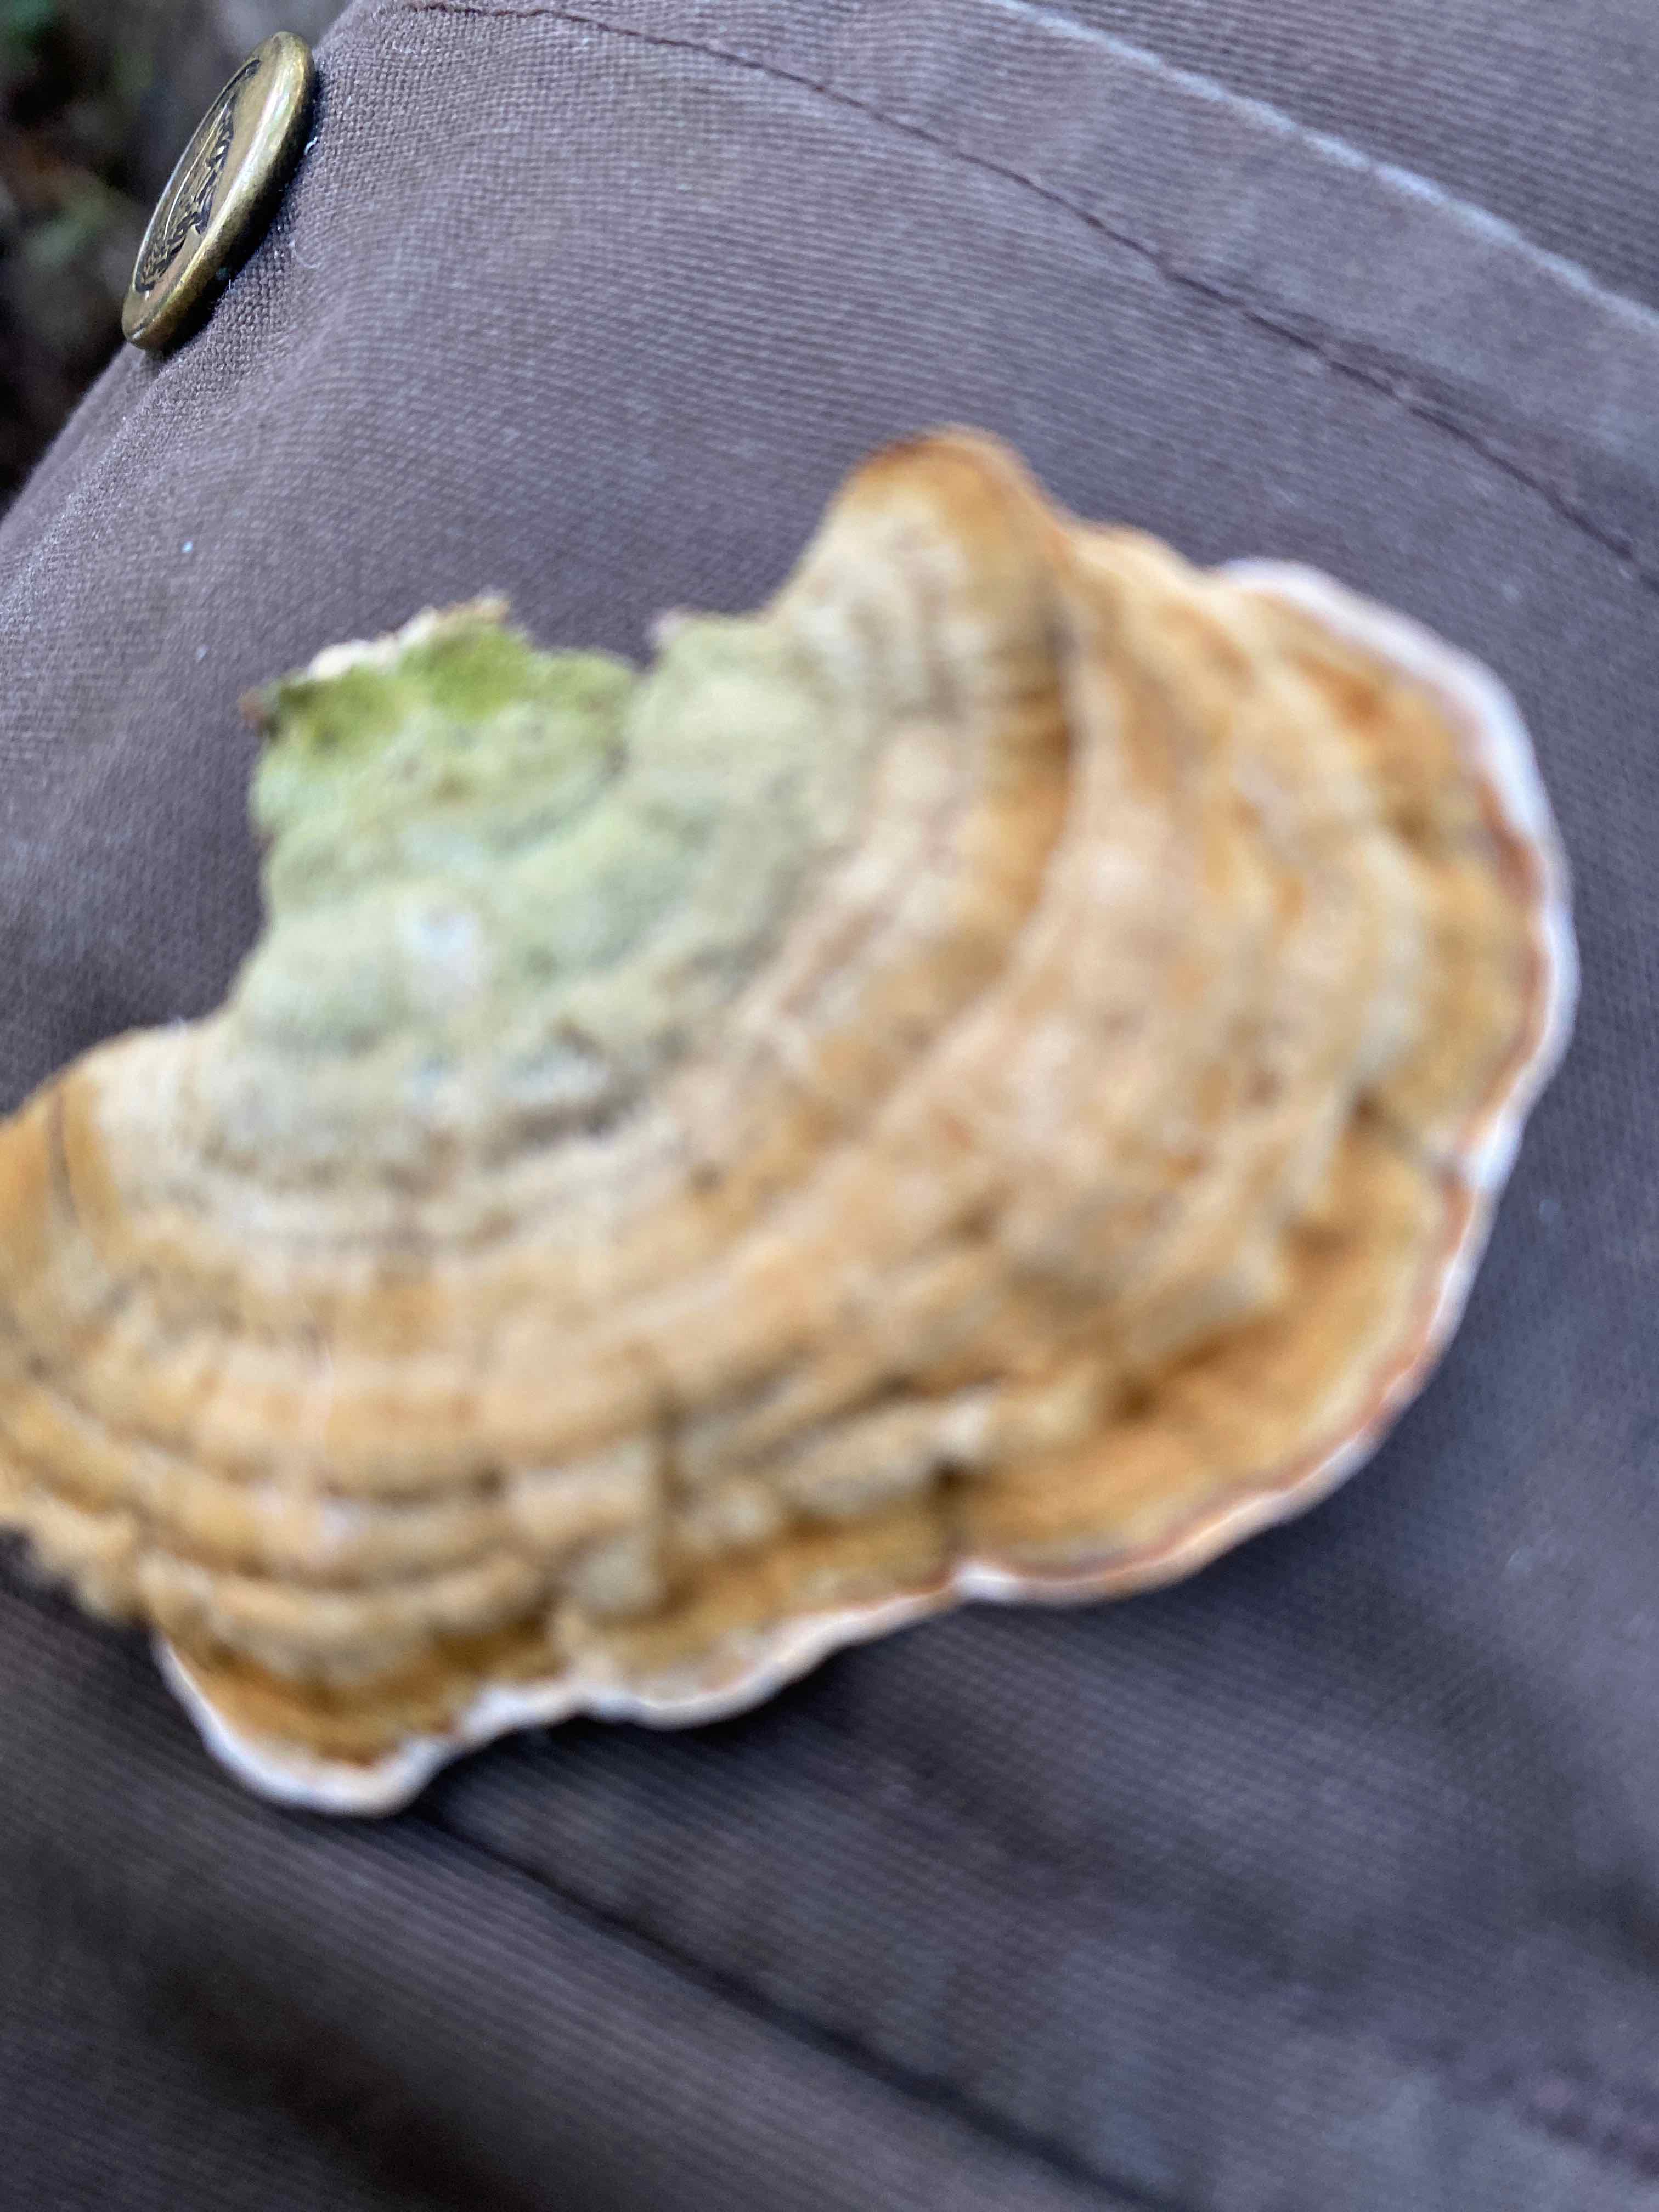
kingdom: Fungi
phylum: Basidiomycota
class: Agaricomycetes
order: Polyporales
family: Polyporaceae
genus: Trametes
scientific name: Trametes versicolor
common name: broget læderporesvamp
